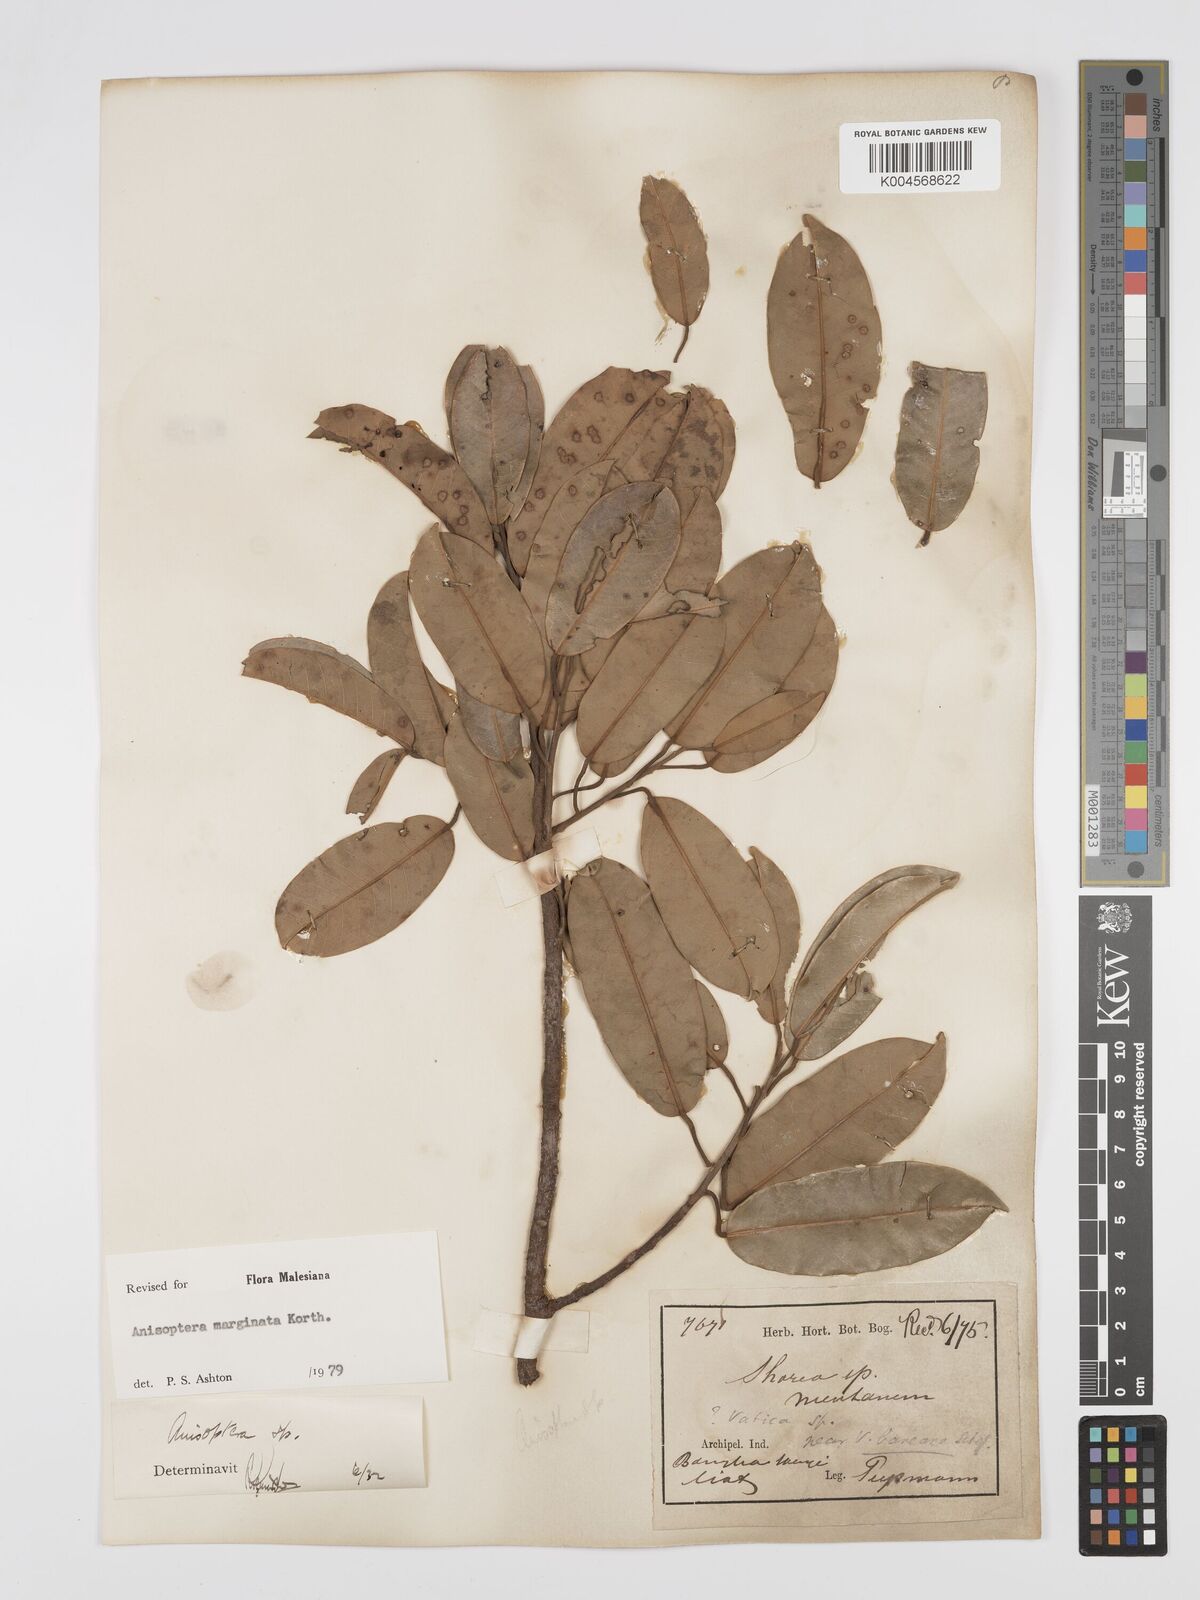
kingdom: Plantae
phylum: Tracheophyta
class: Magnoliopsida
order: Malvales
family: Dipterocarpaceae
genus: Anisoptera
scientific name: Anisoptera marginata
